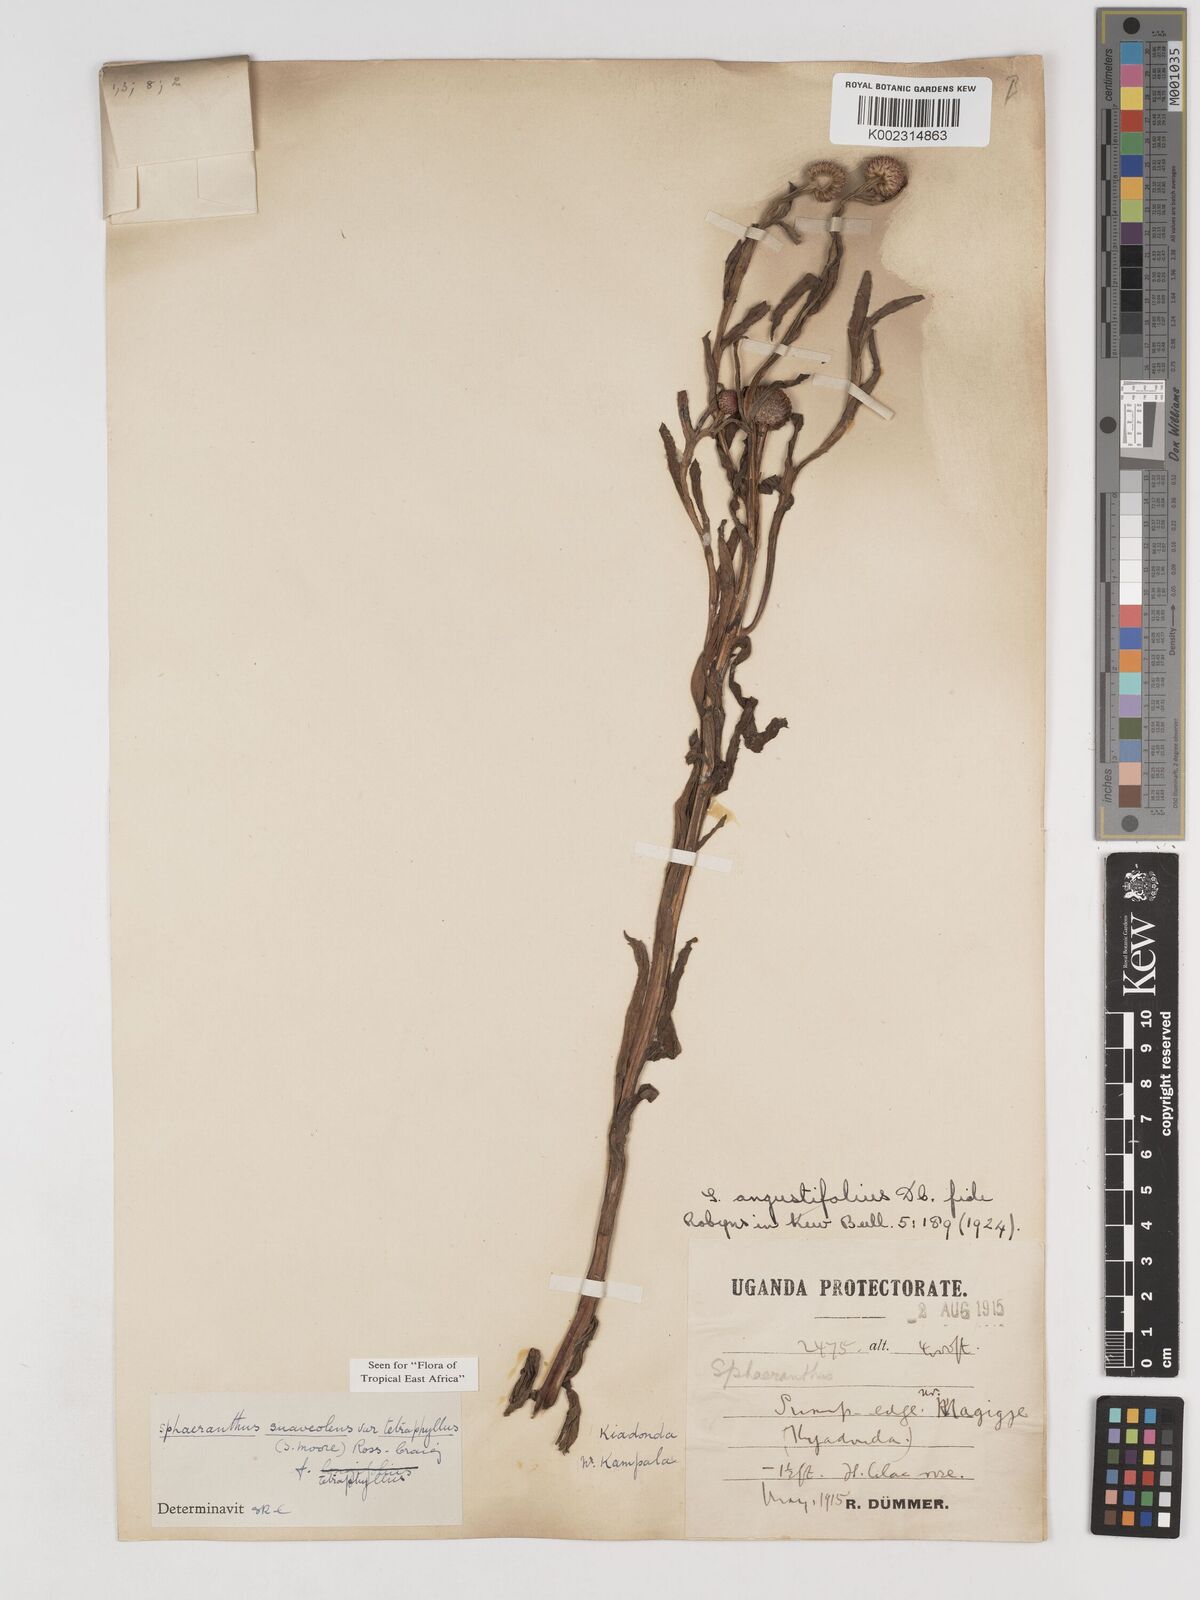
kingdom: Plantae
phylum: Tracheophyta
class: Magnoliopsida
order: Asterales
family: Asteraceae
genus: Sphaeranthus
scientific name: Sphaeranthus suaveolens
